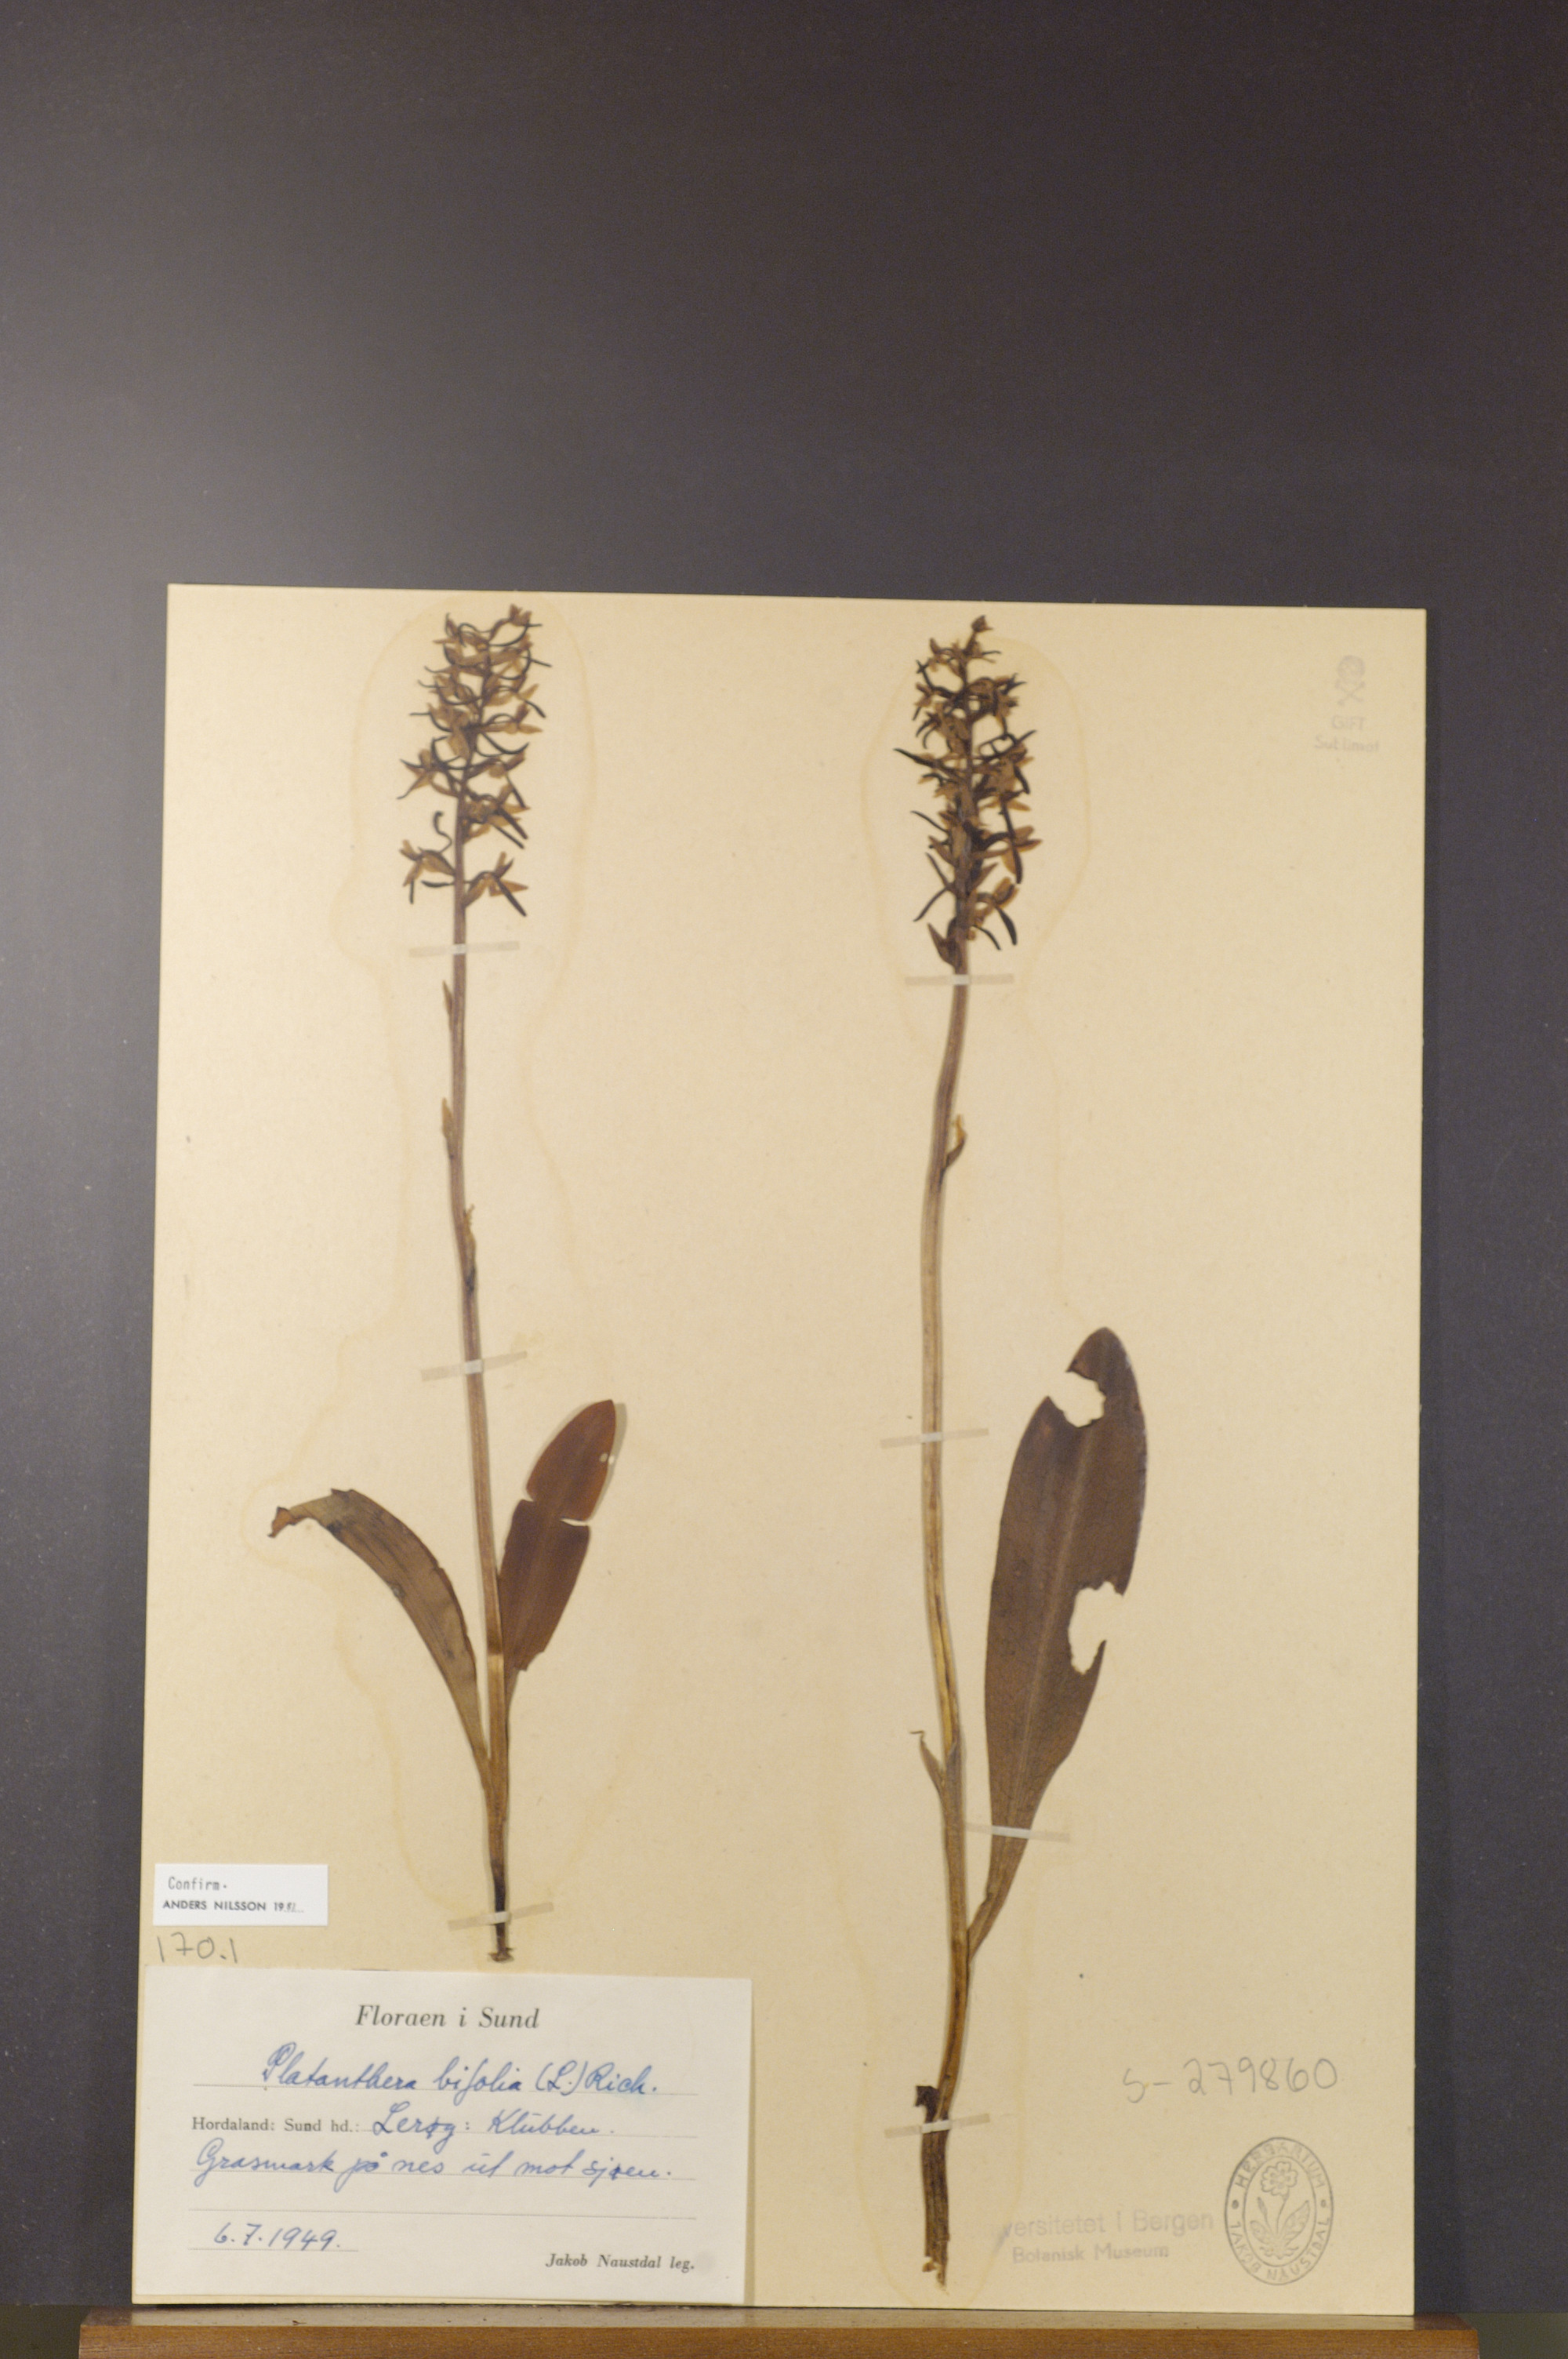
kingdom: Plantae
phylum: Tracheophyta
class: Liliopsida
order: Asparagales
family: Orchidaceae
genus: Platanthera
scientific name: Platanthera bifolia
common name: Lesser butterfly-orchid
